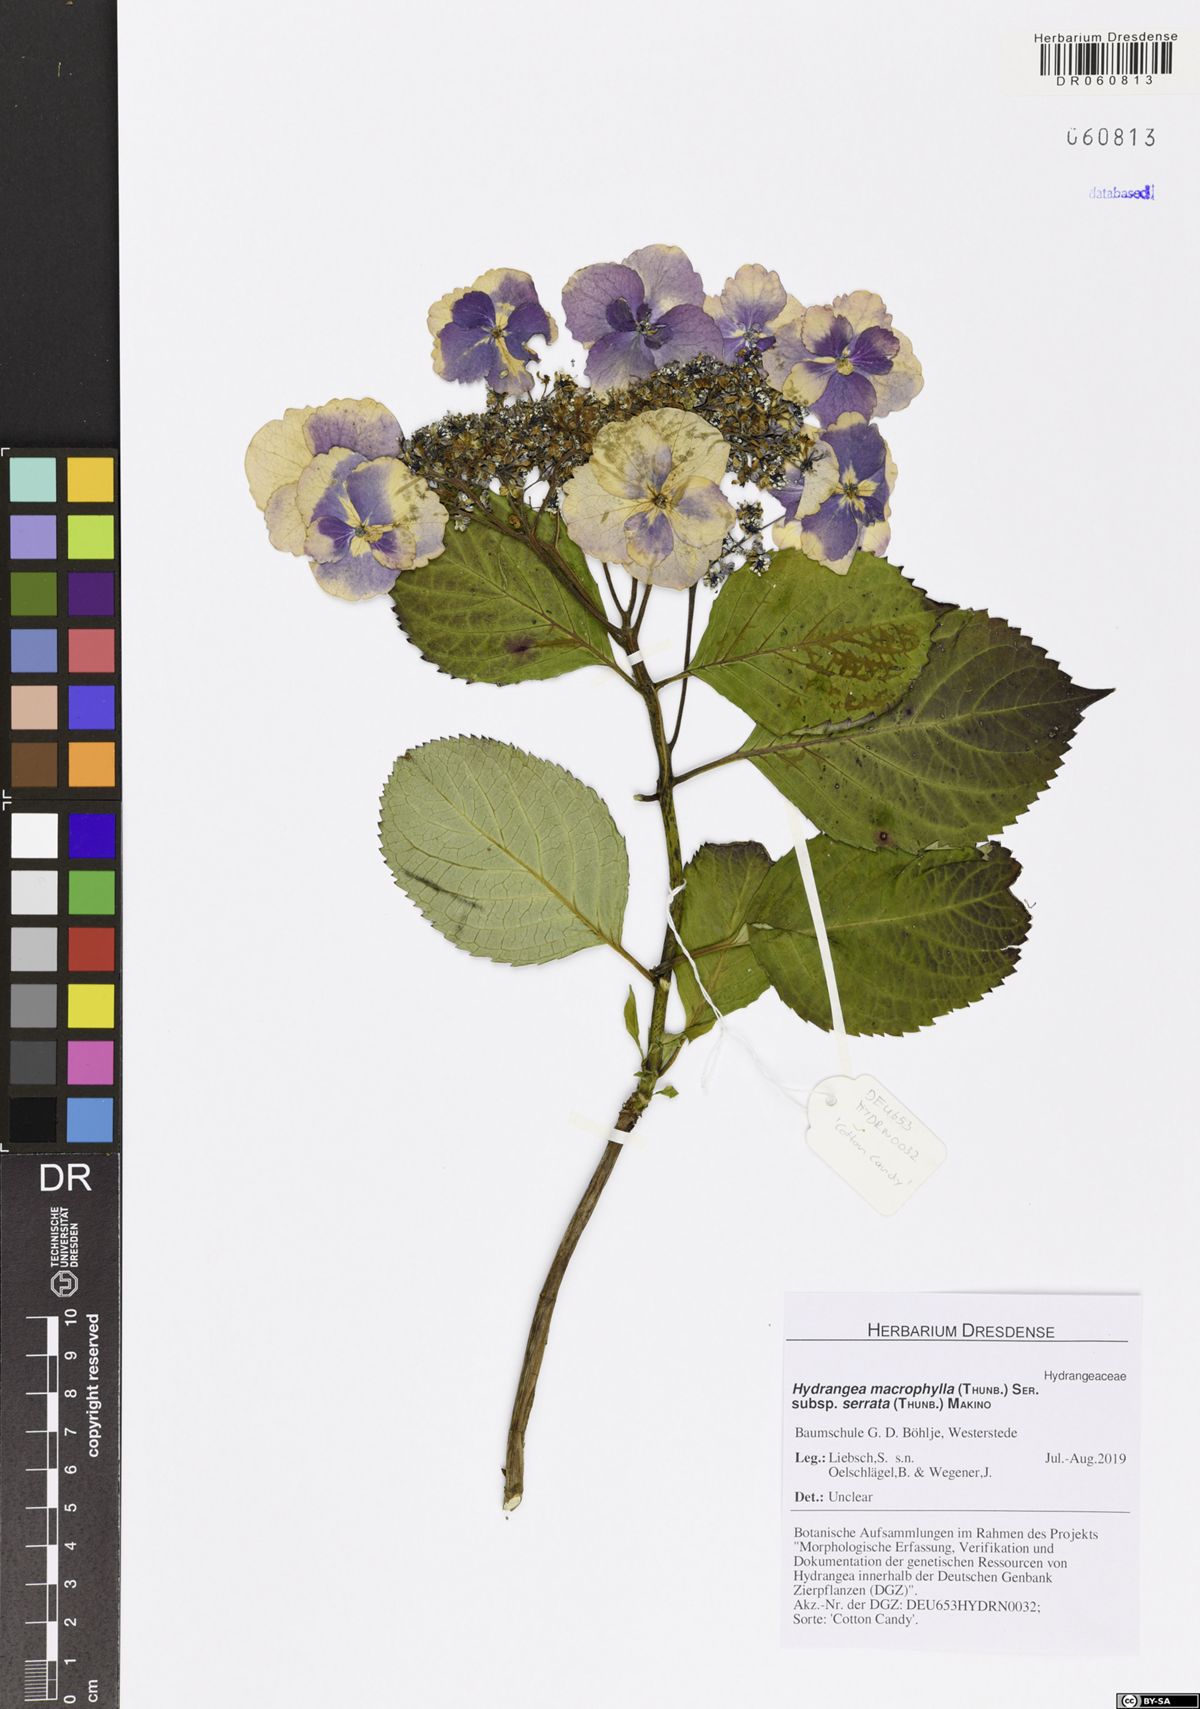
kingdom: Plantae
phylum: Tracheophyta
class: Magnoliopsida
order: Cornales
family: Hydrangeaceae
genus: Hydrangea
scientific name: Hydrangea serrata
